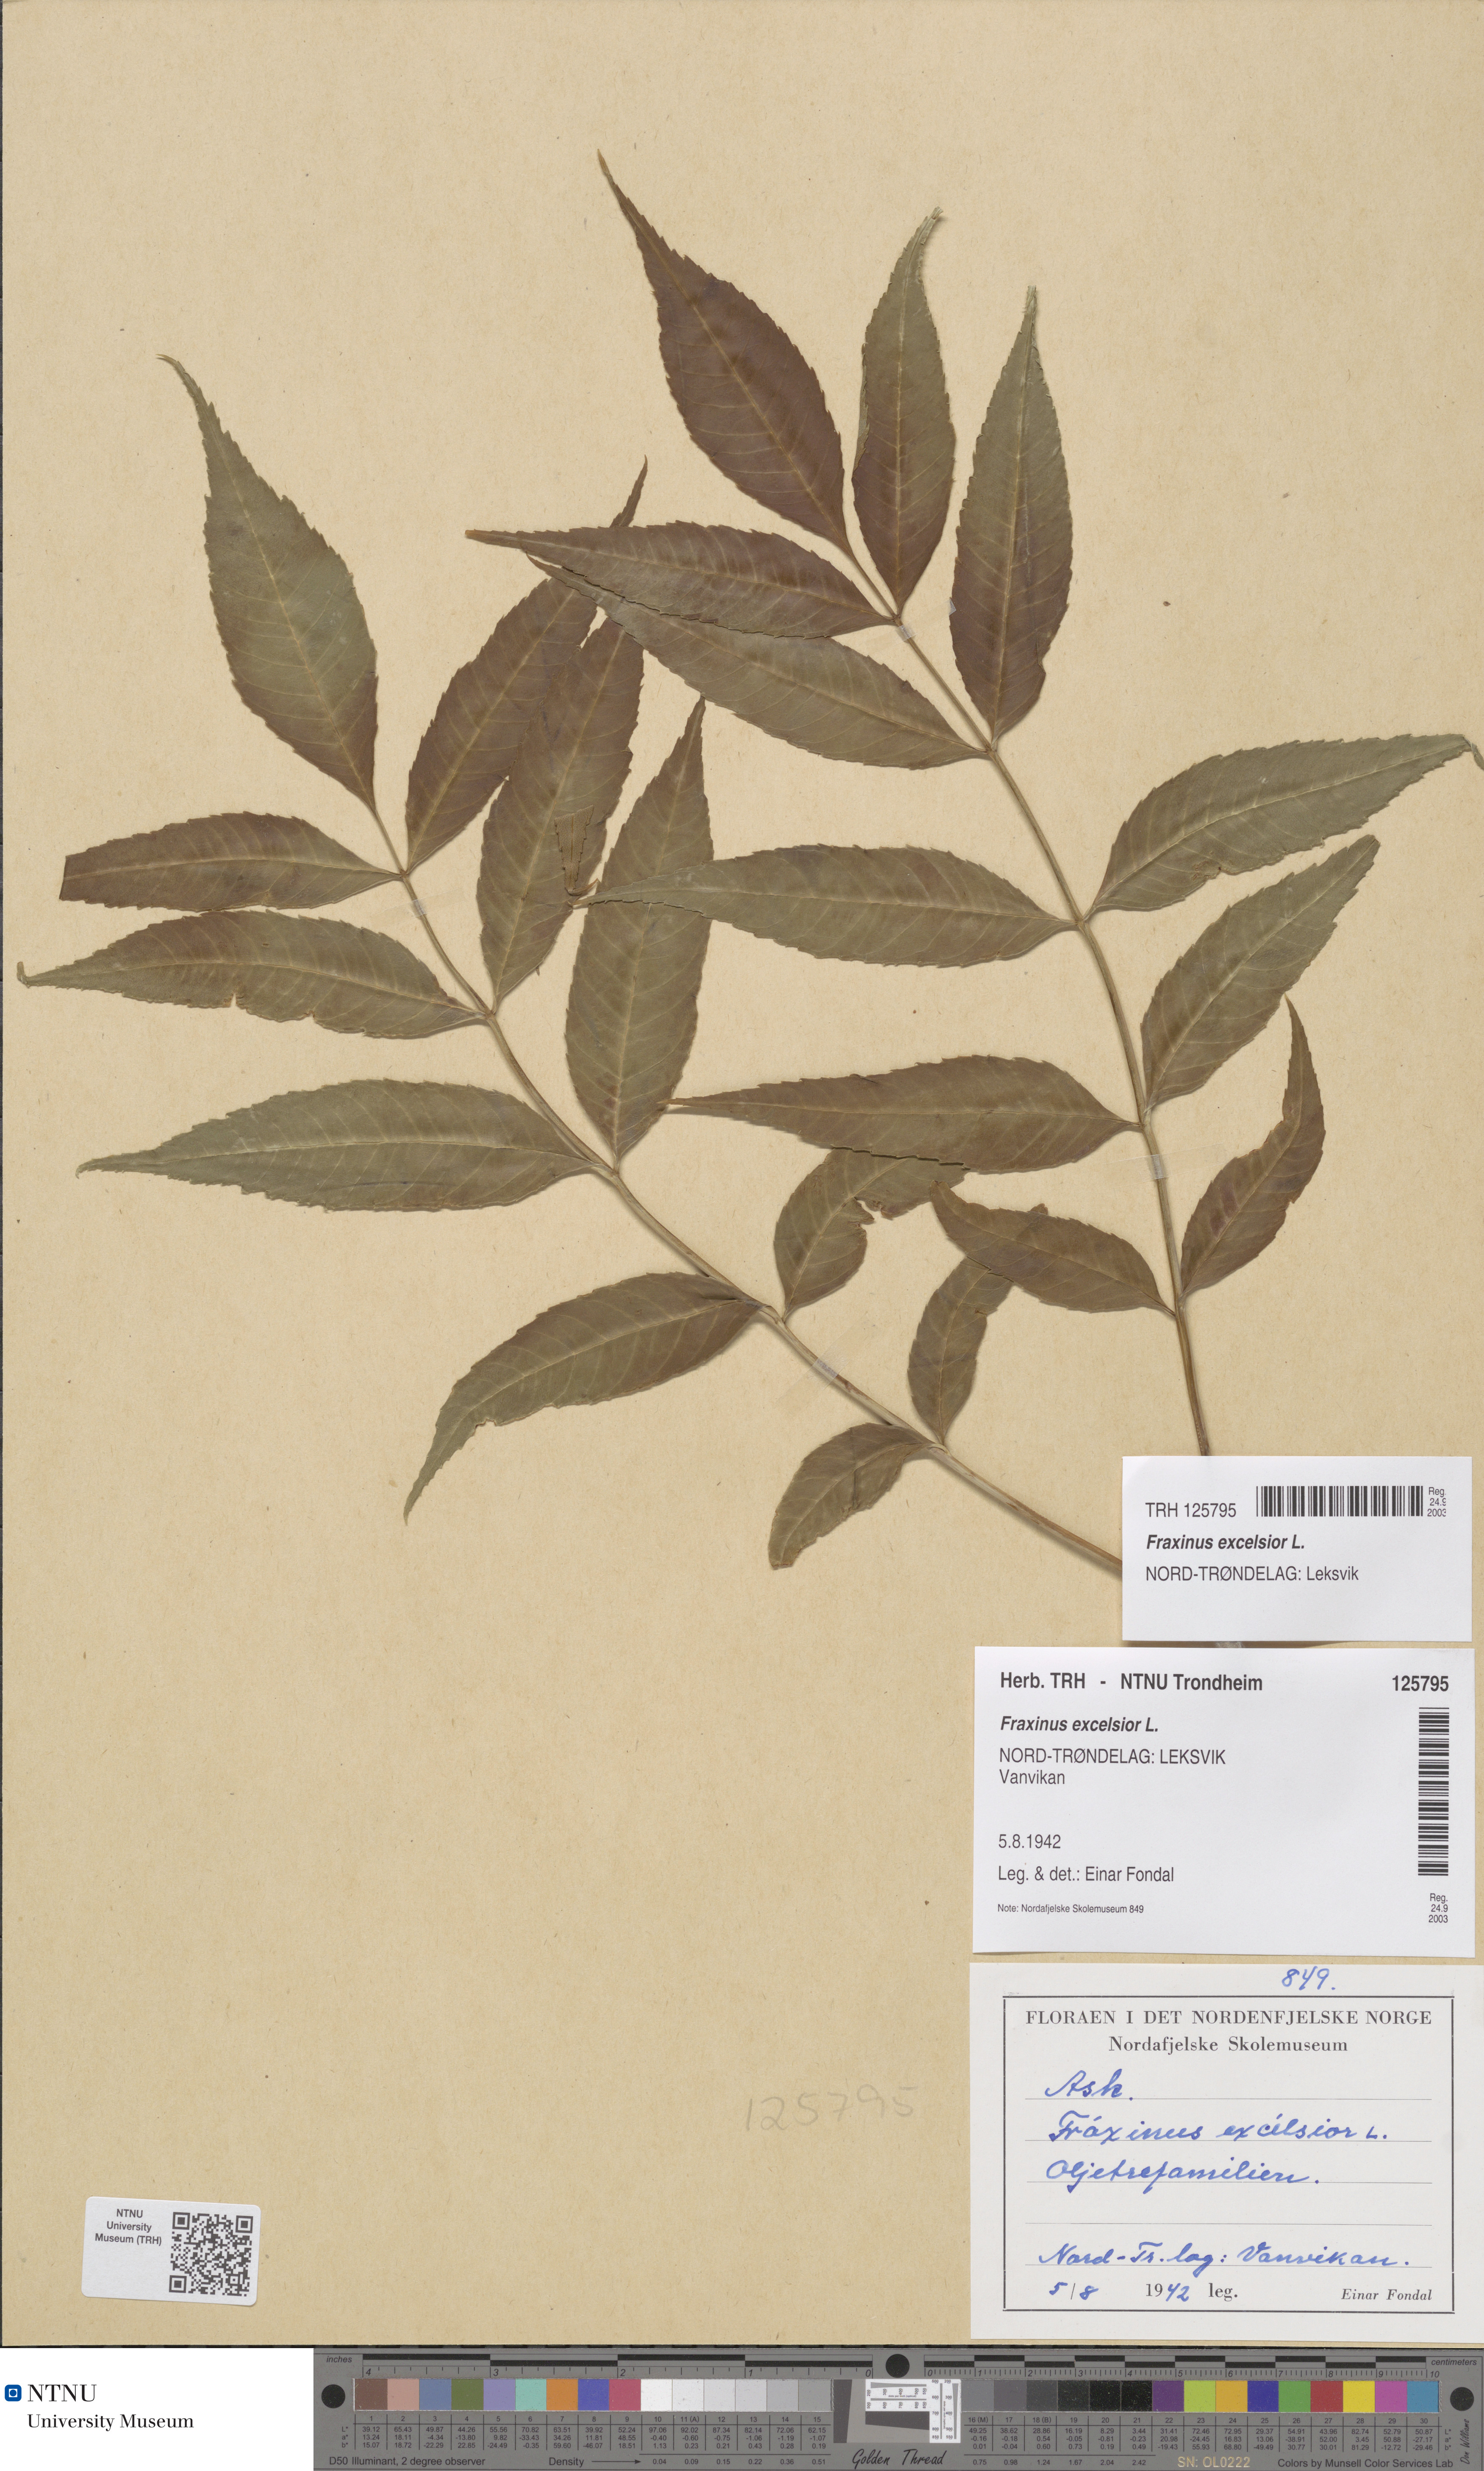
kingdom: Plantae
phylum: Tracheophyta
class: Magnoliopsida
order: Lamiales
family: Oleaceae
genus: Fraxinus
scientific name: Fraxinus excelsior
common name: European ash
